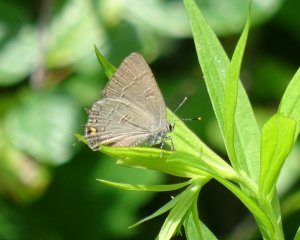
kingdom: Animalia
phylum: Arthropoda
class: Insecta
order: Lepidoptera
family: Lycaenidae
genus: Satyrium
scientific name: Satyrium calanus
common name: Banded Hairstreak
